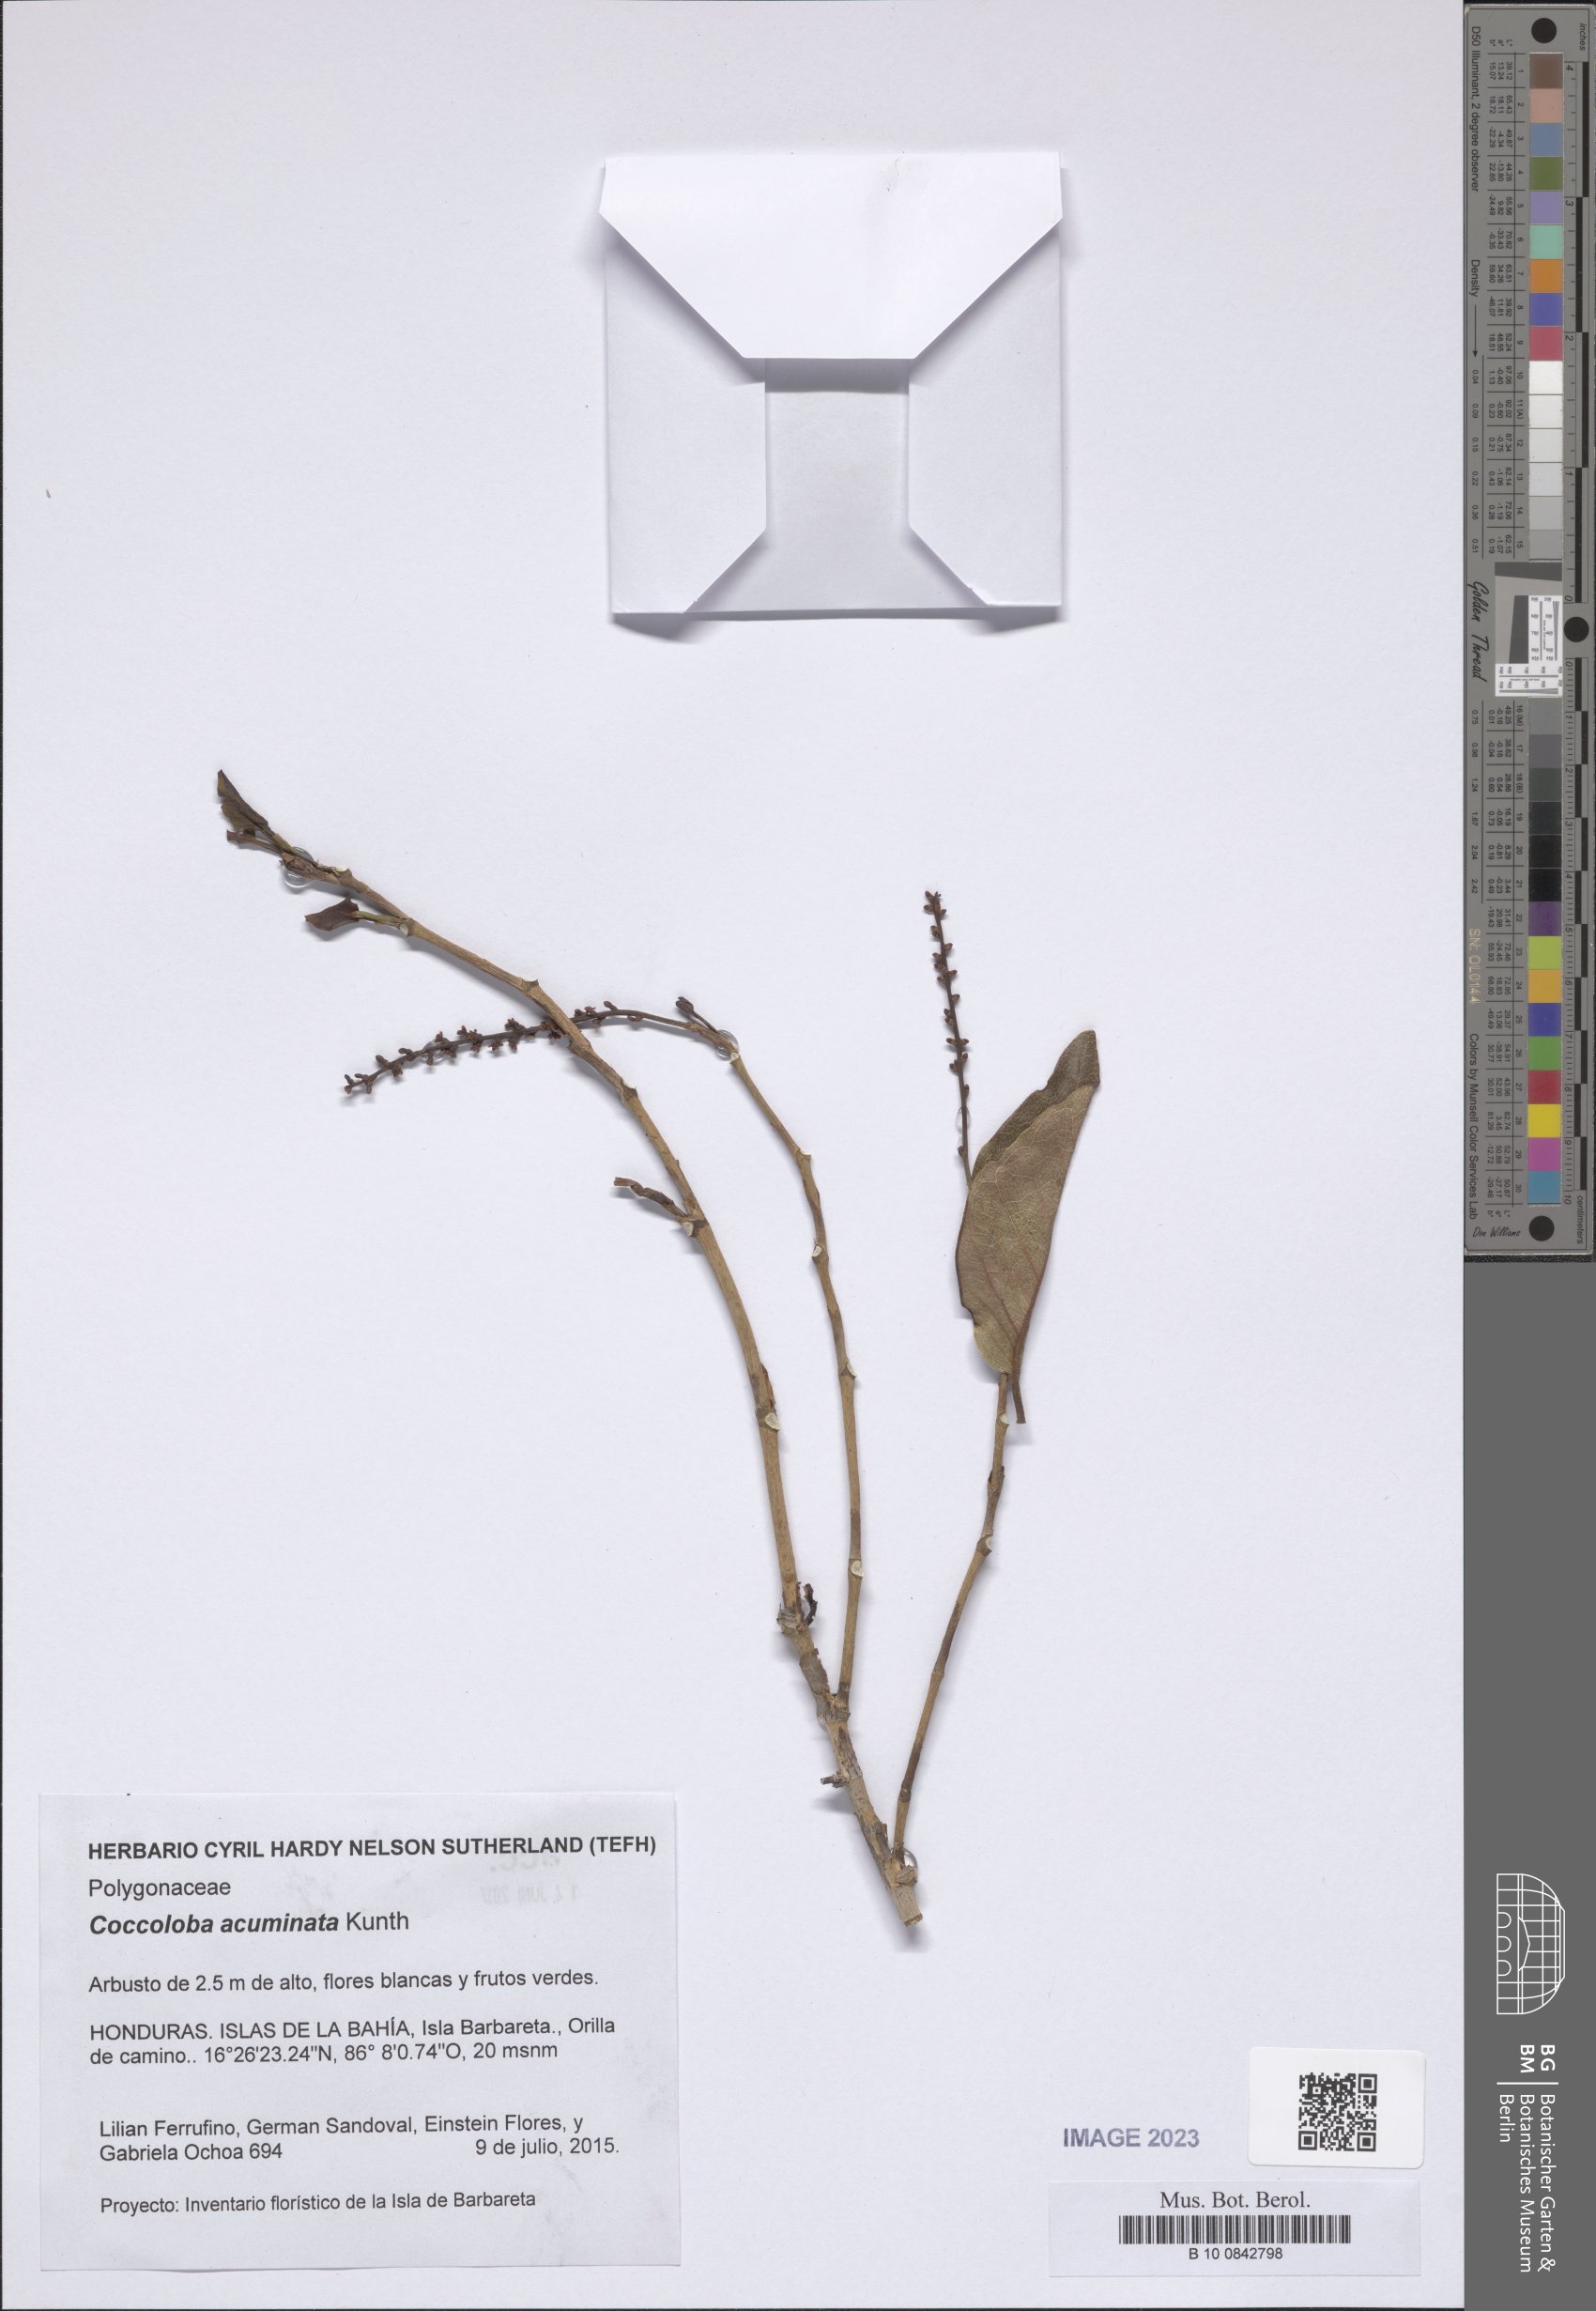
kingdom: Plantae
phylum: Tracheophyta
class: Magnoliopsida
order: Caryophyllales
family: Polygonaceae
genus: Coccoloba
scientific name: Coccoloba acuminata
